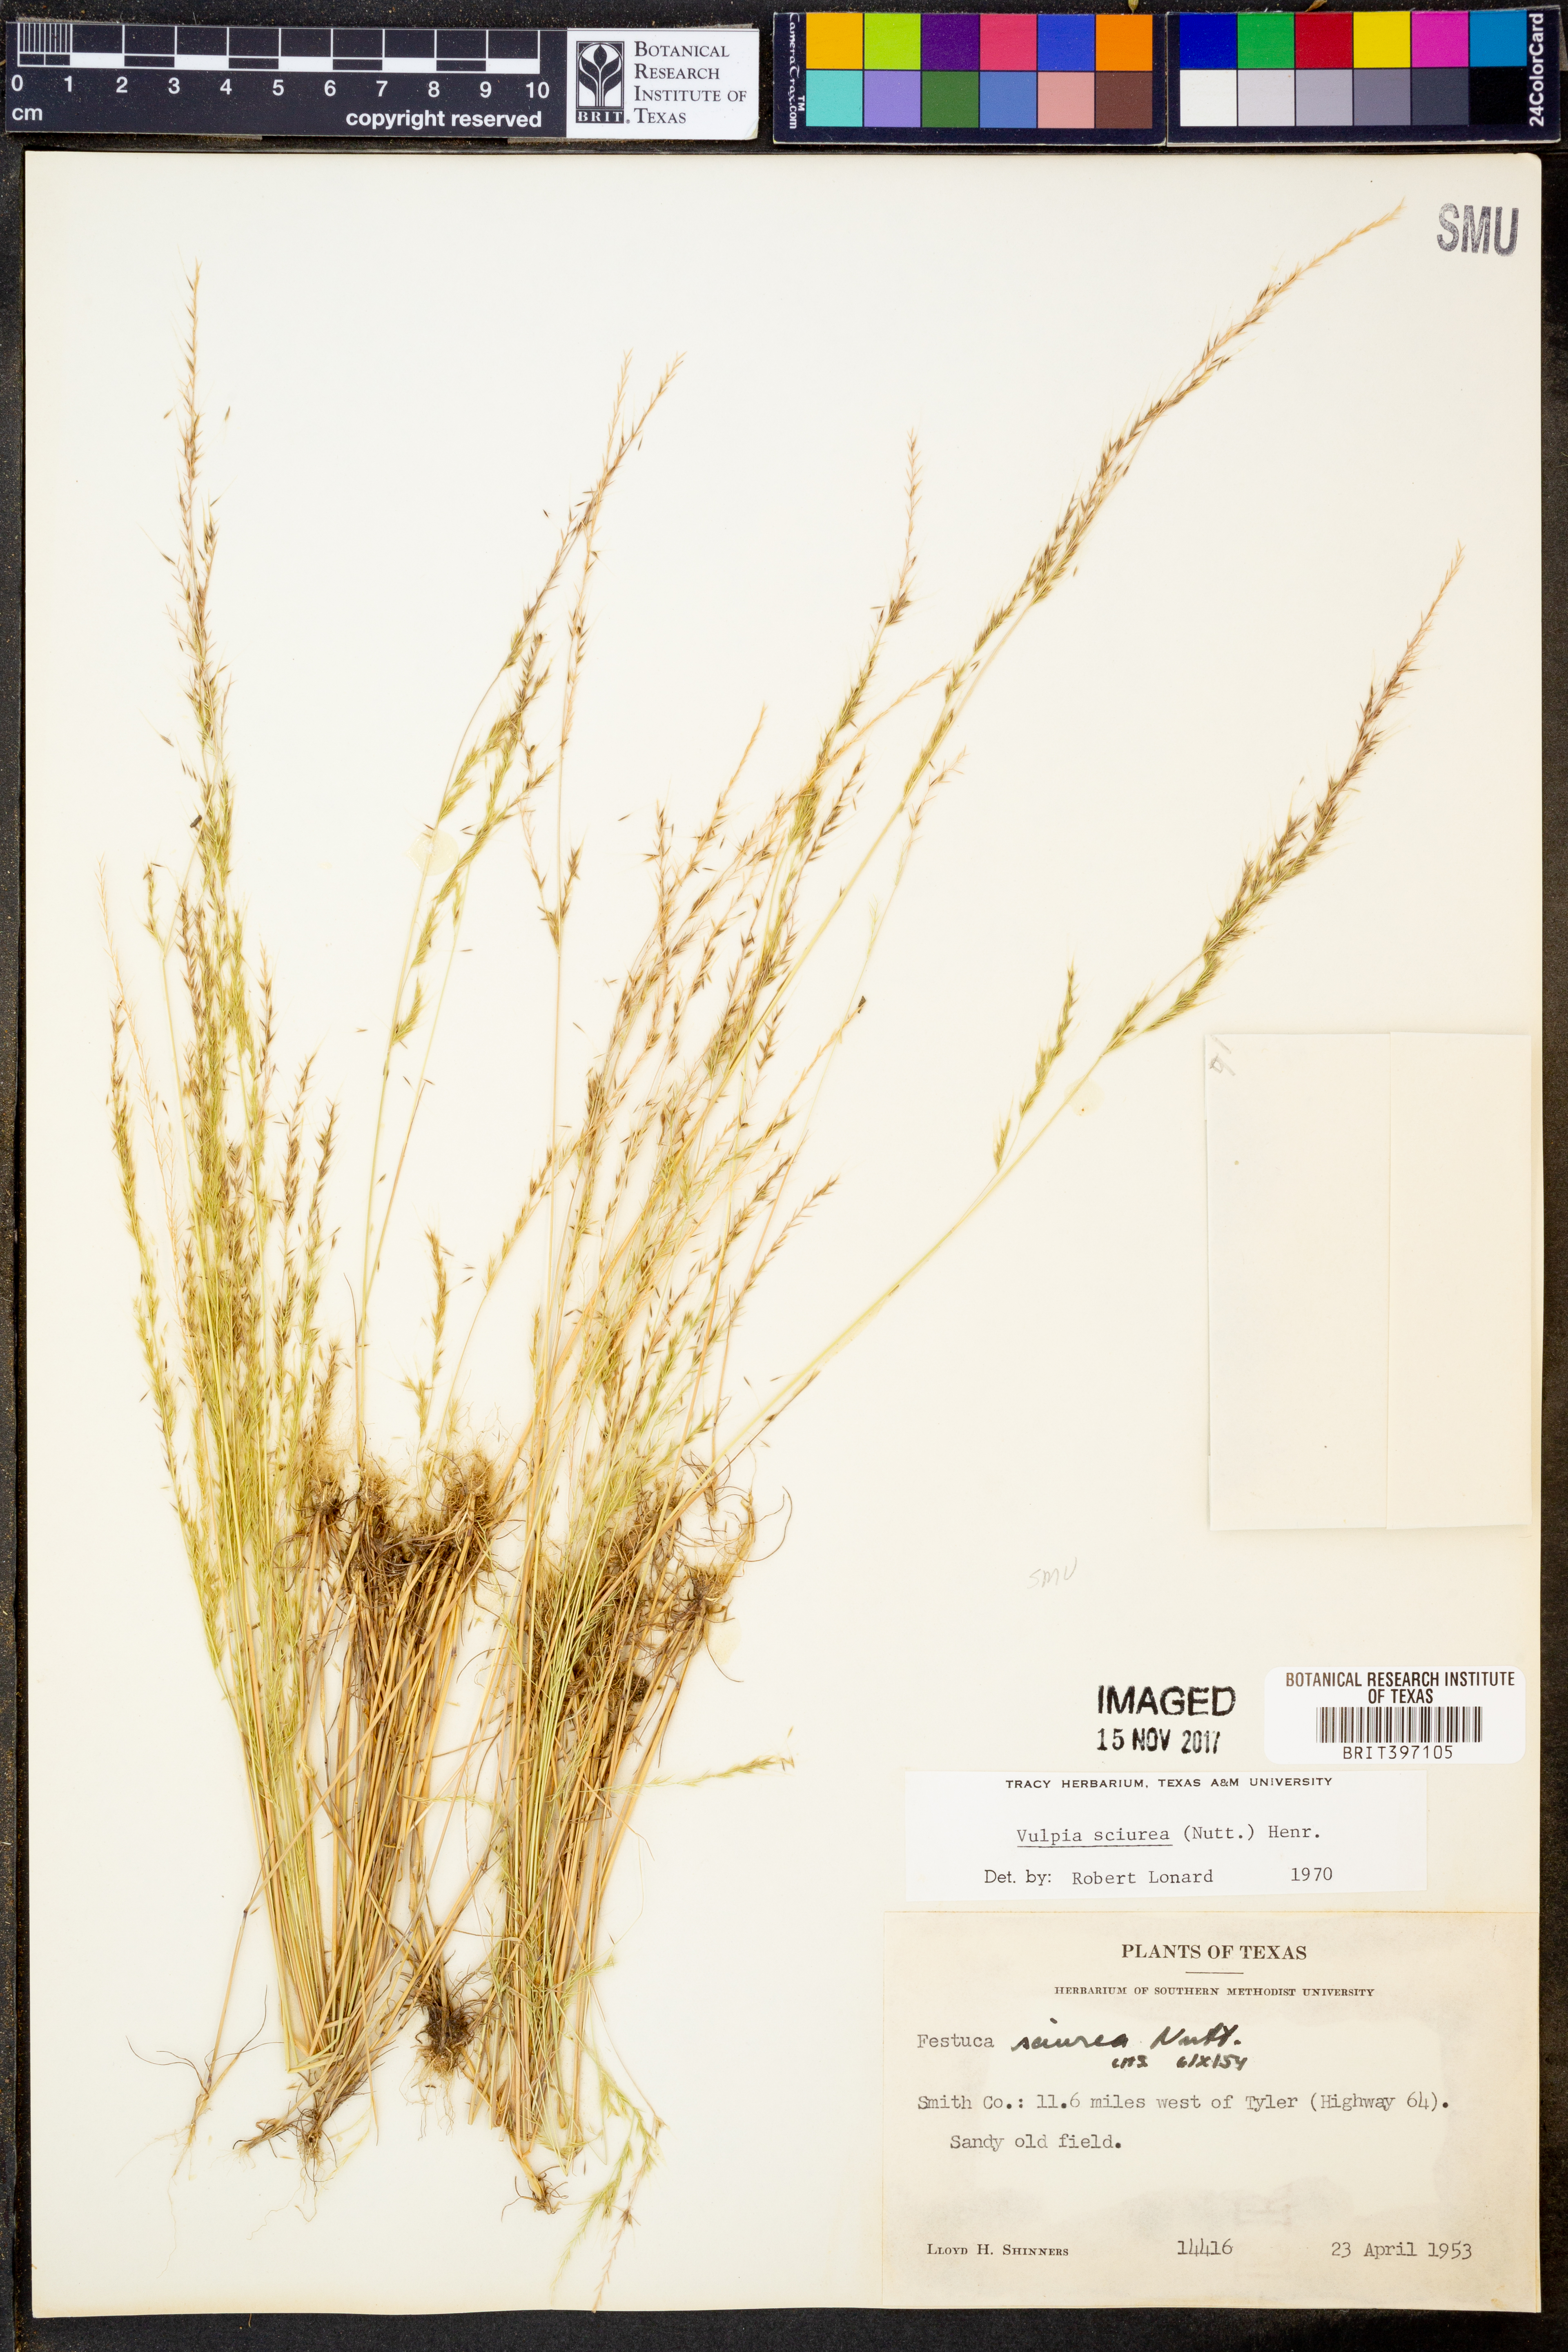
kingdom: Plantae
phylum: Tracheophyta
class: Liliopsida
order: Poales
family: Poaceae
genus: Festuca
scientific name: Festuca sciurea
